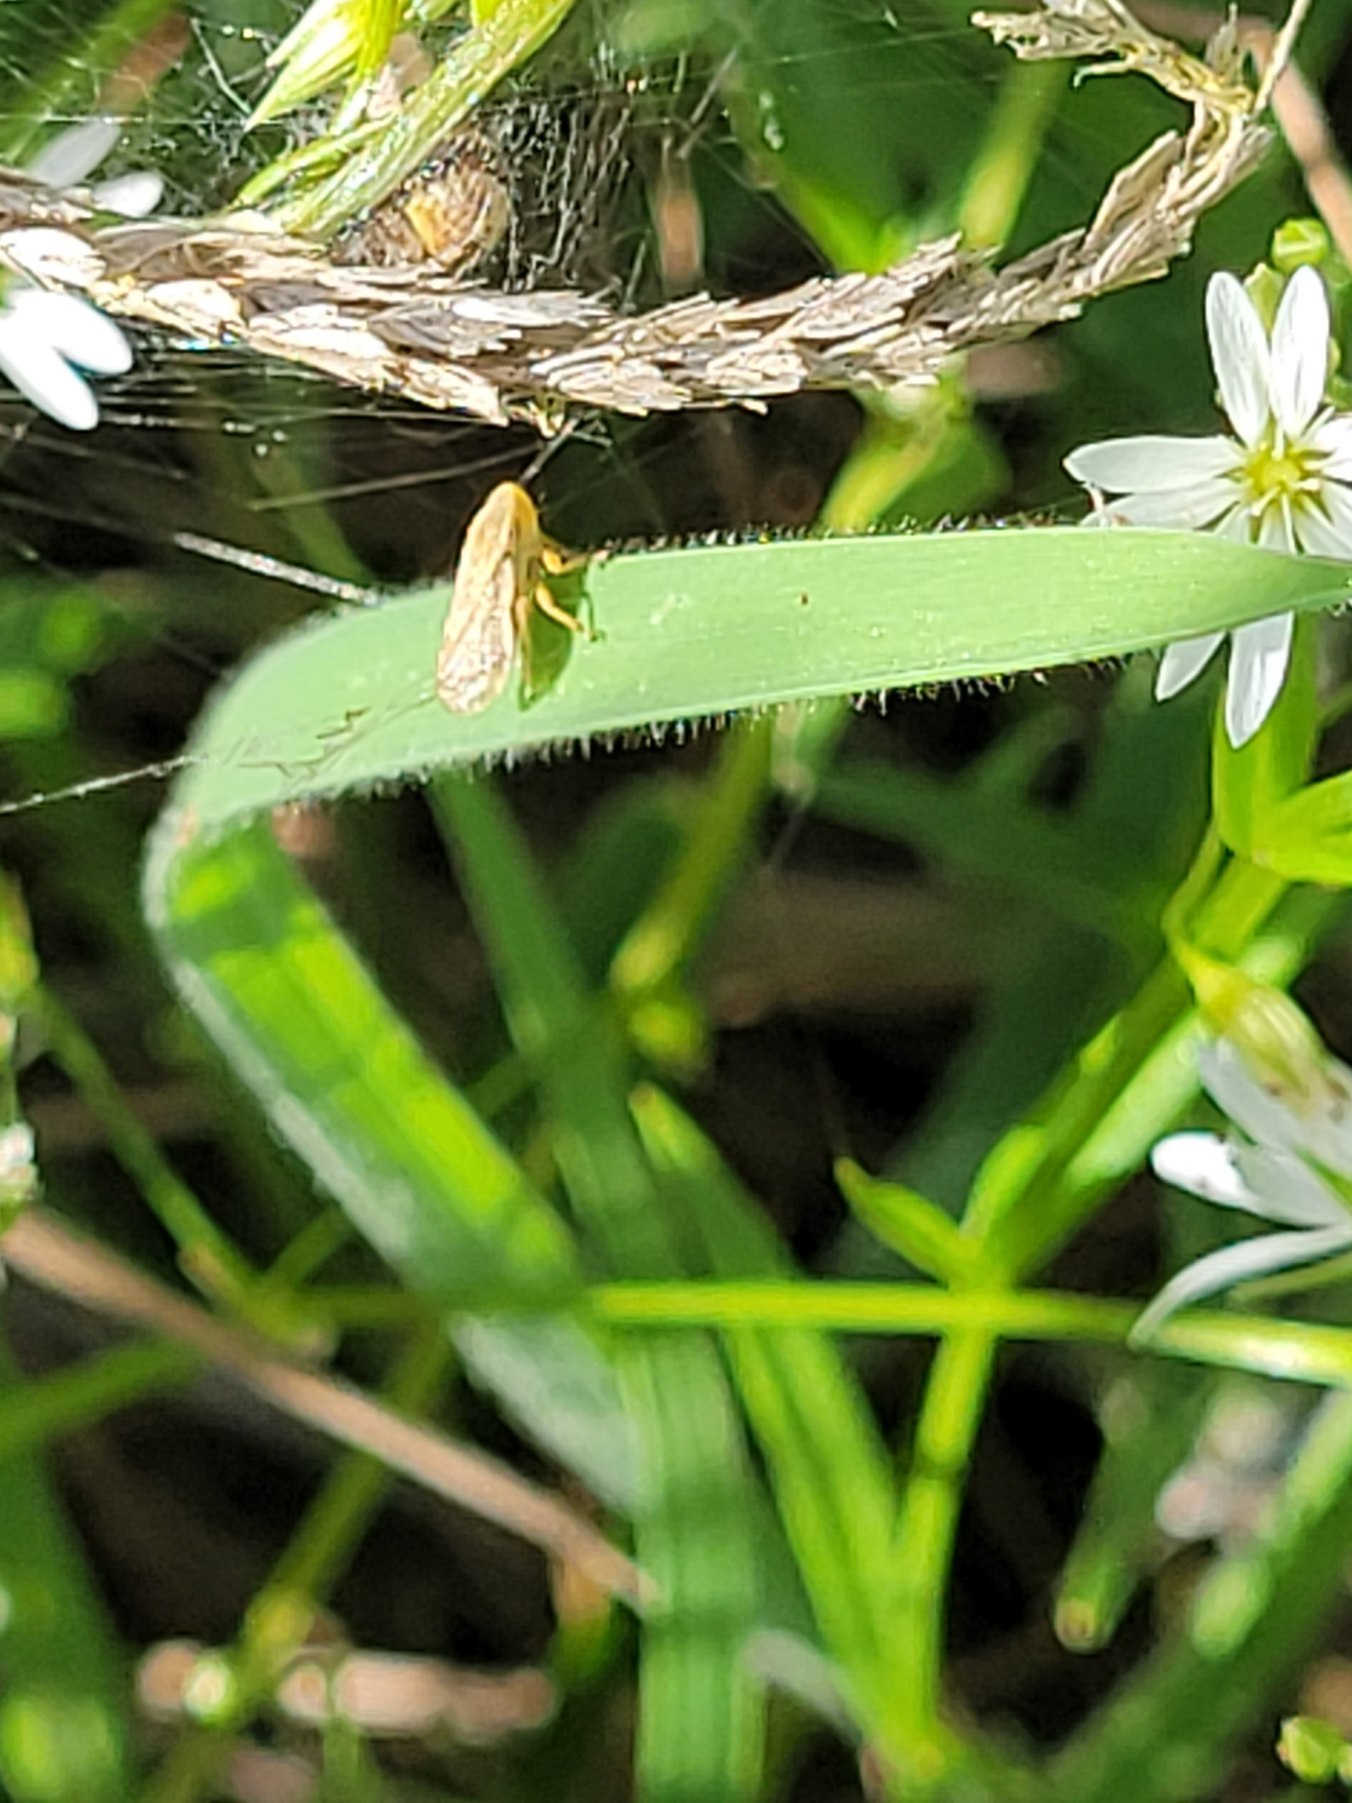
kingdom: Animalia
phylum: Arthropoda
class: Insecta
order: Hemiptera
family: Aphrophoridae
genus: Philaenus
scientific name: Philaenus spumarius
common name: Almindelig skumcikade
